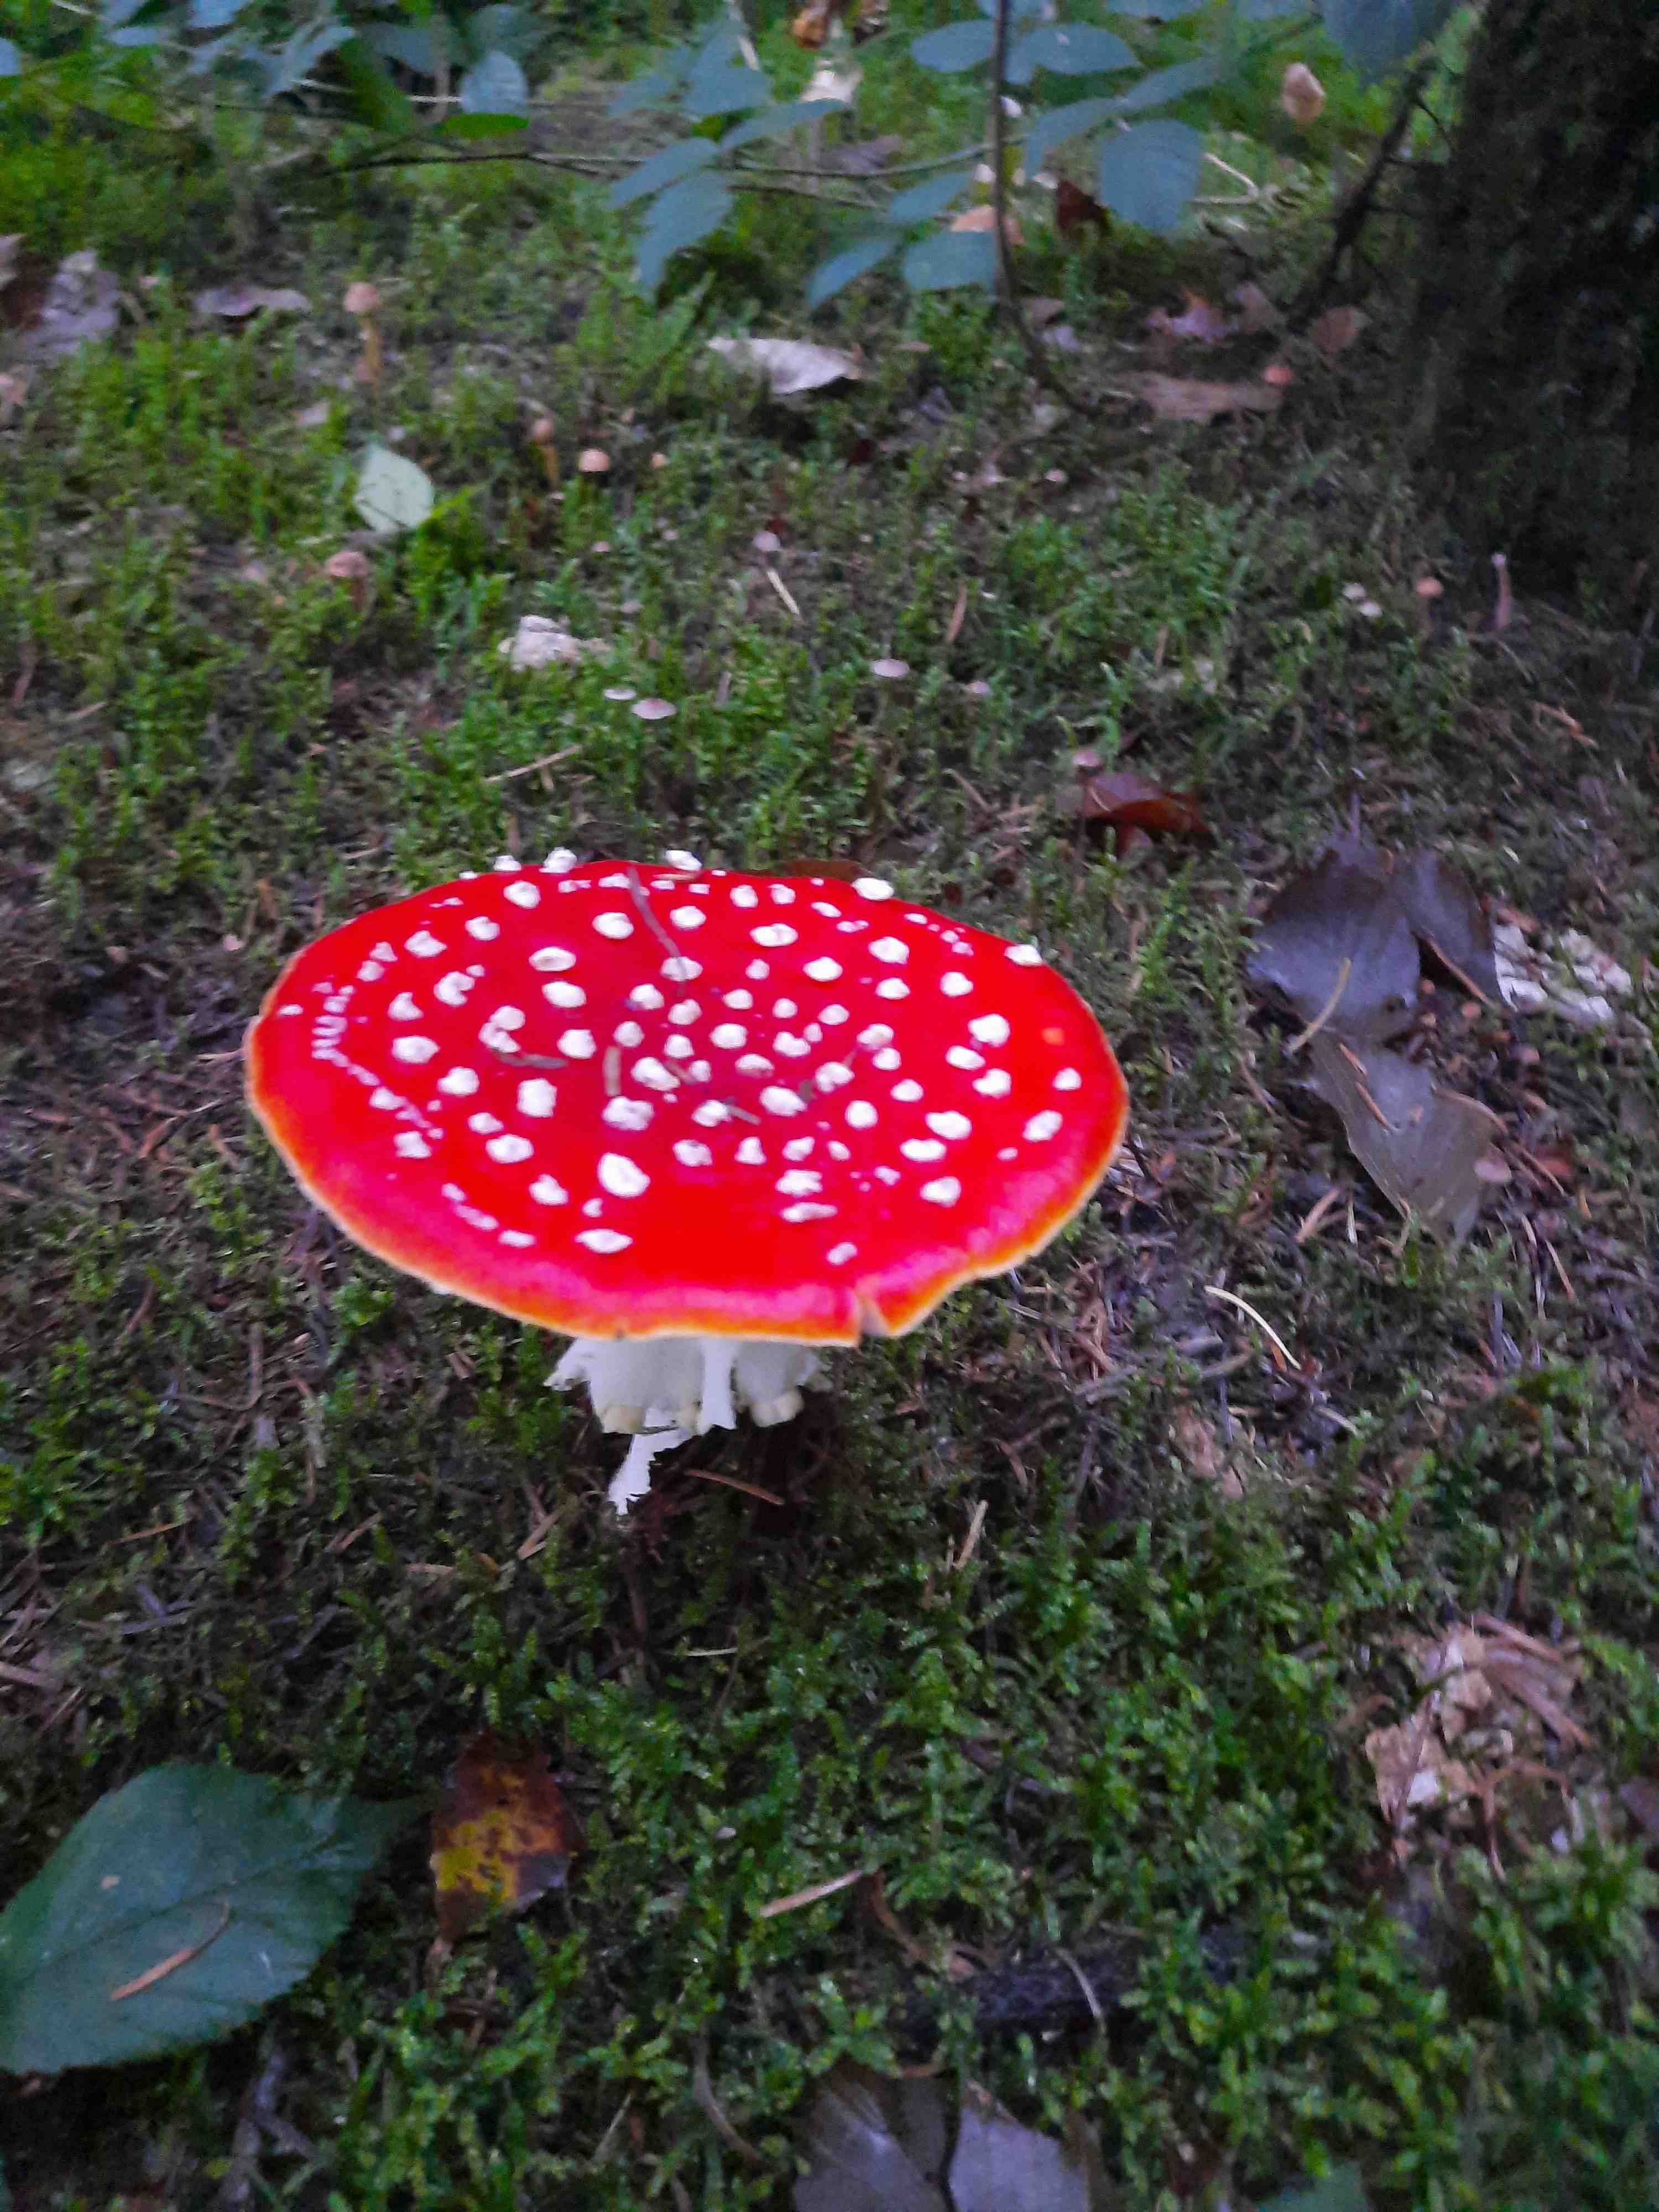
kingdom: Fungi
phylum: Basidiomycota
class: Agaricomycetes
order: Agaricales
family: Amanitaceae
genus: Amanita
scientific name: Amanita muscaria
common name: rød fluesvamp
